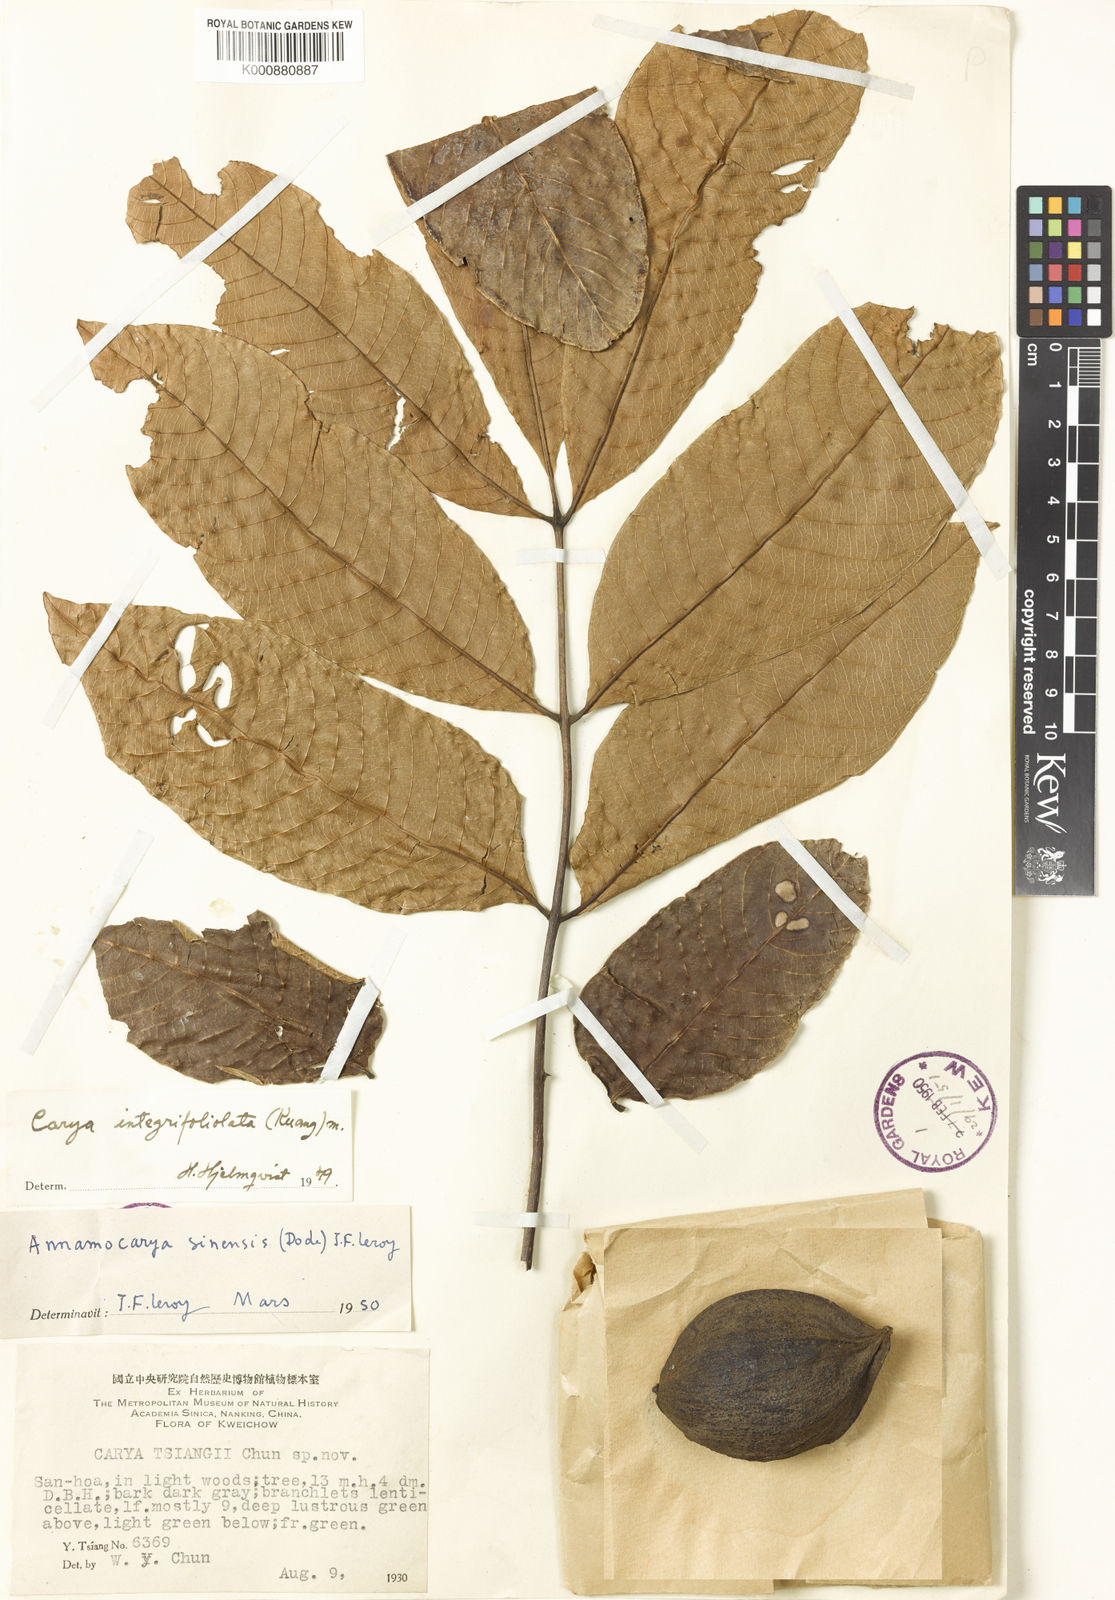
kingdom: Plantae
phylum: Tracheophyta
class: Magnoliopsida
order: Fagales
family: Juglandaceae
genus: Carya
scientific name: Carya
